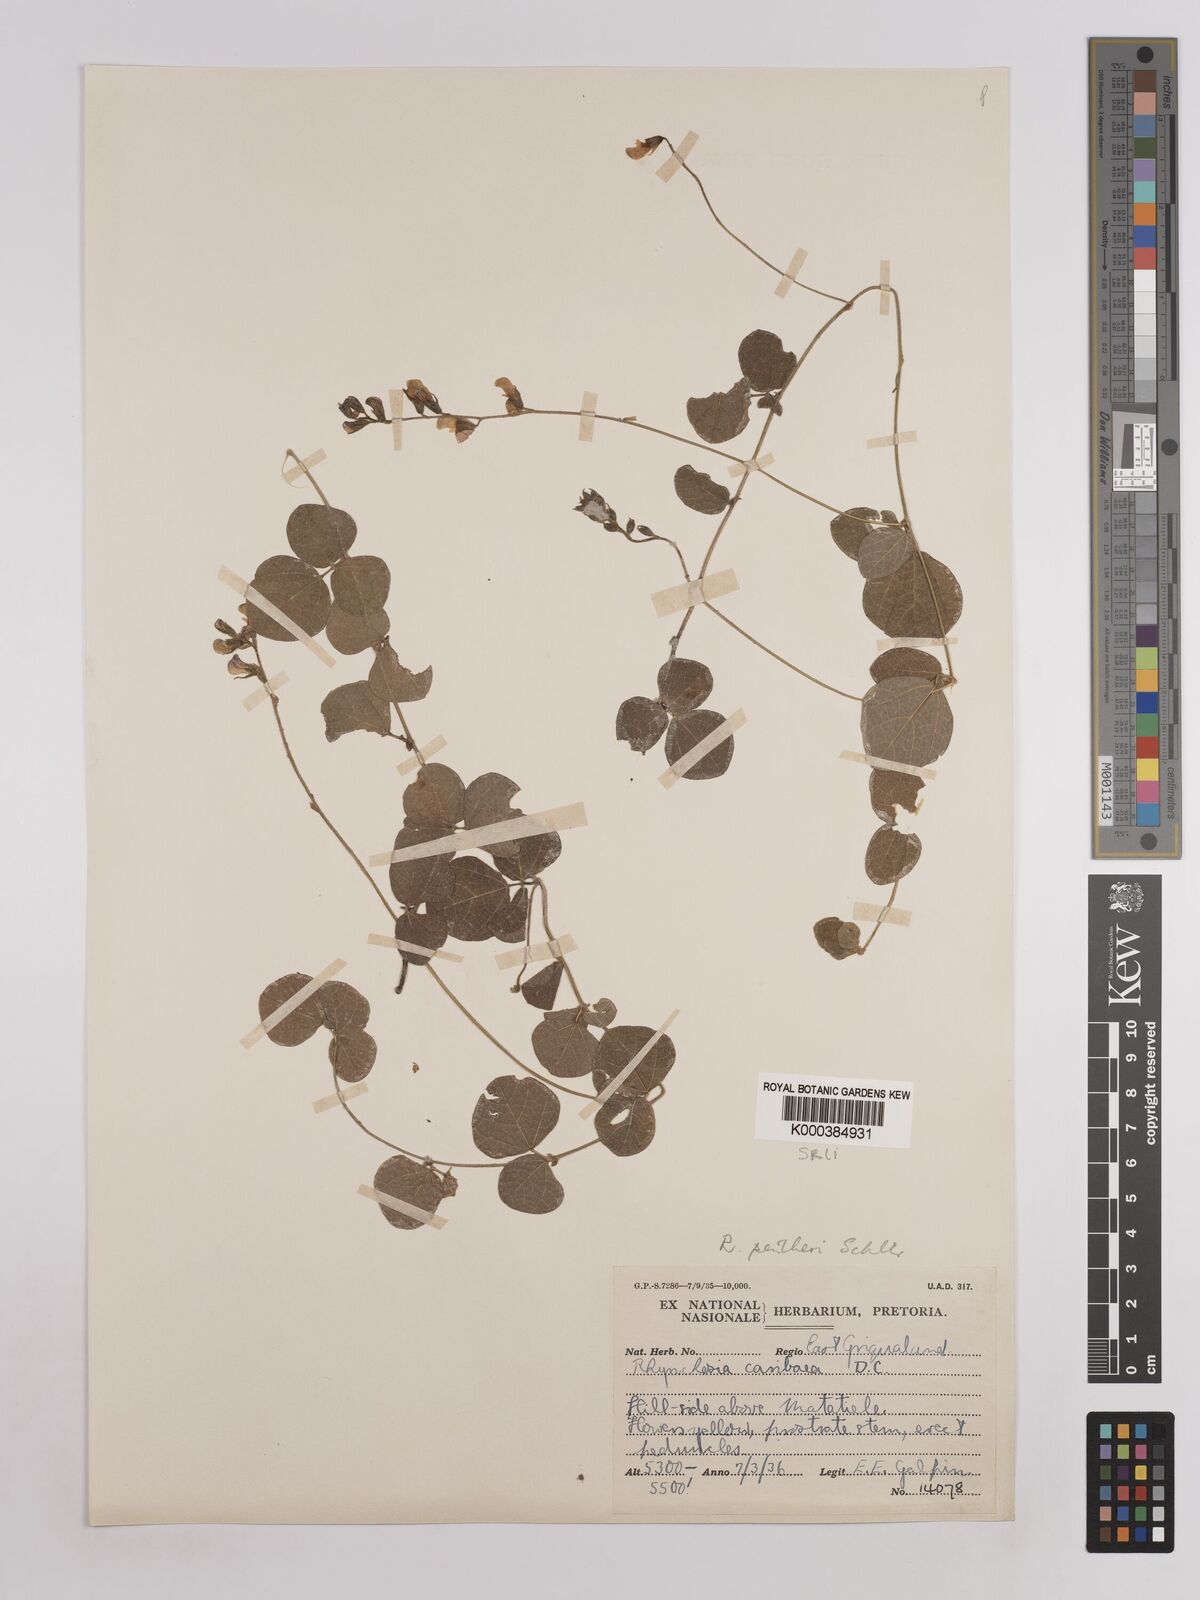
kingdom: Plantae
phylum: Tracheophyta
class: Magnoliopsida
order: Fabales
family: Fabaceae
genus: Rhynchosia
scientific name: Rhynchosia pentheri
